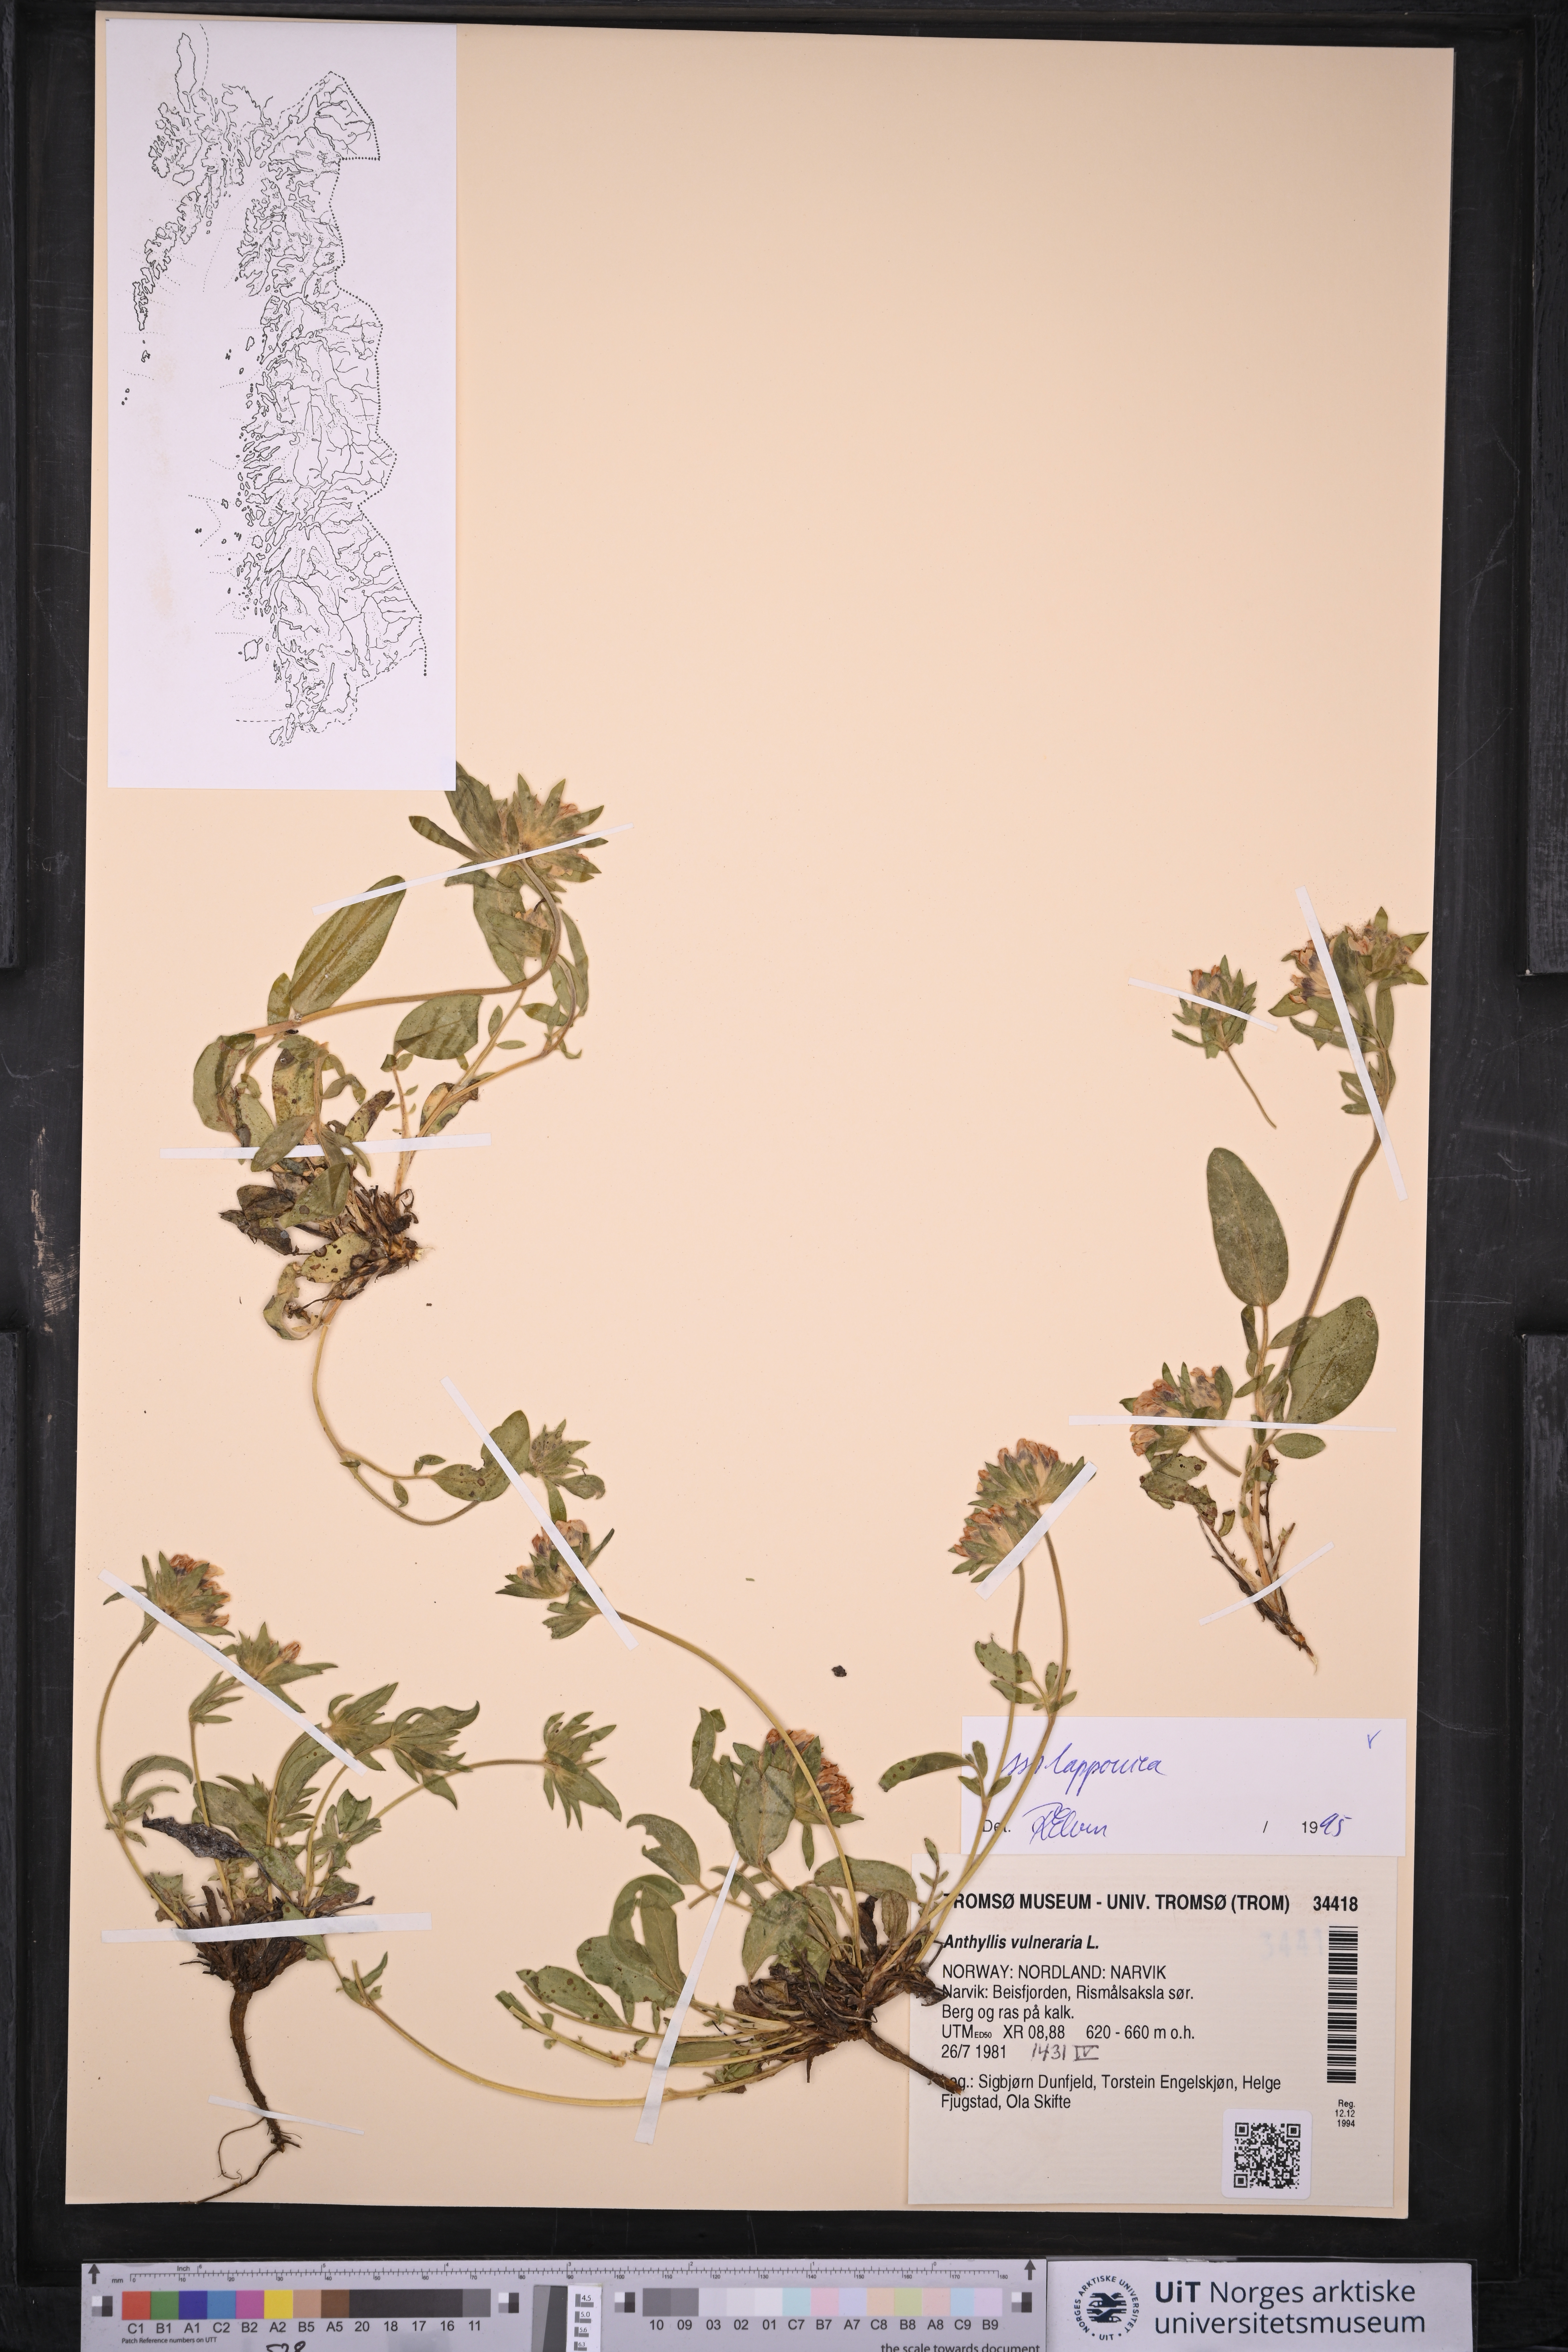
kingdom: Plantae
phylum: Tracheophyta
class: Magnoliopsida
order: Fabales
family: Fabaceae
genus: Anthyllis
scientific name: Anthyllis vulneraria
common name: Kidney vetch
